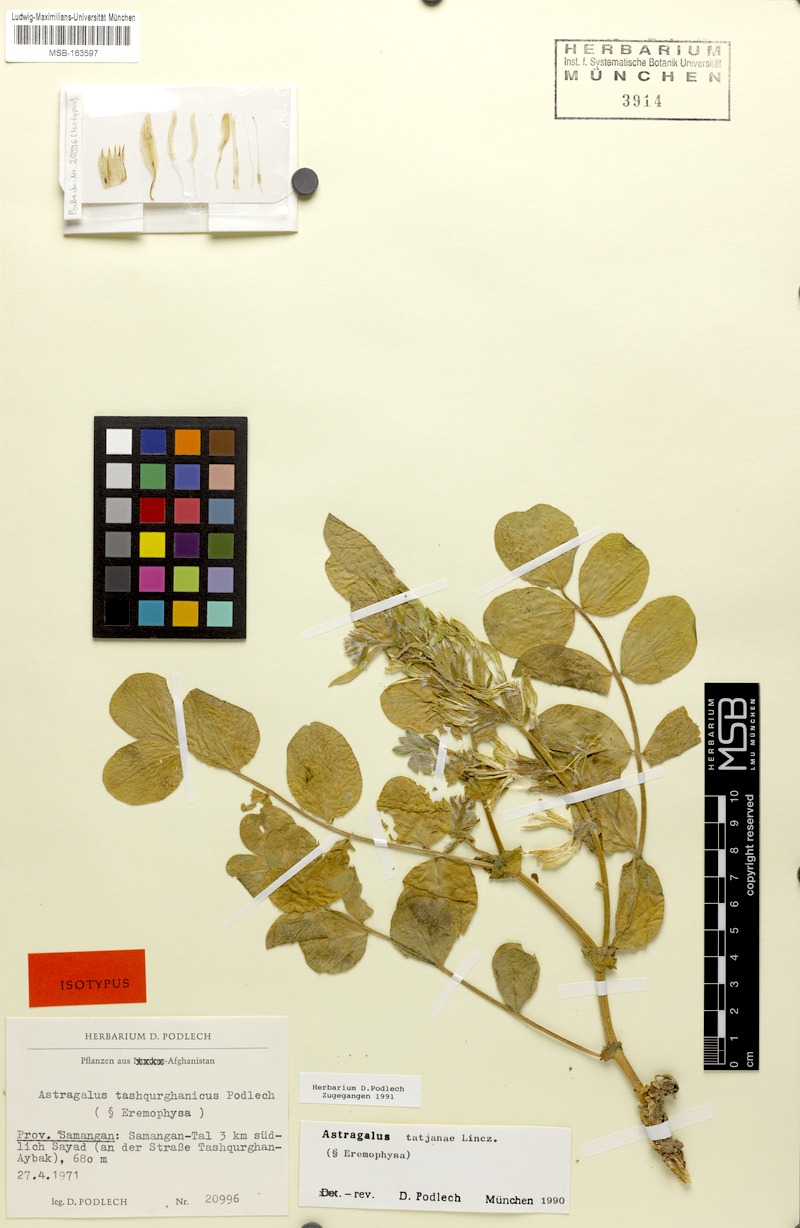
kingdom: Plantae
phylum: Tracheophyta
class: Magnoliopsida
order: Fabales
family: Fabaceae
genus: Astragalus
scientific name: Astragalus tatjanae
